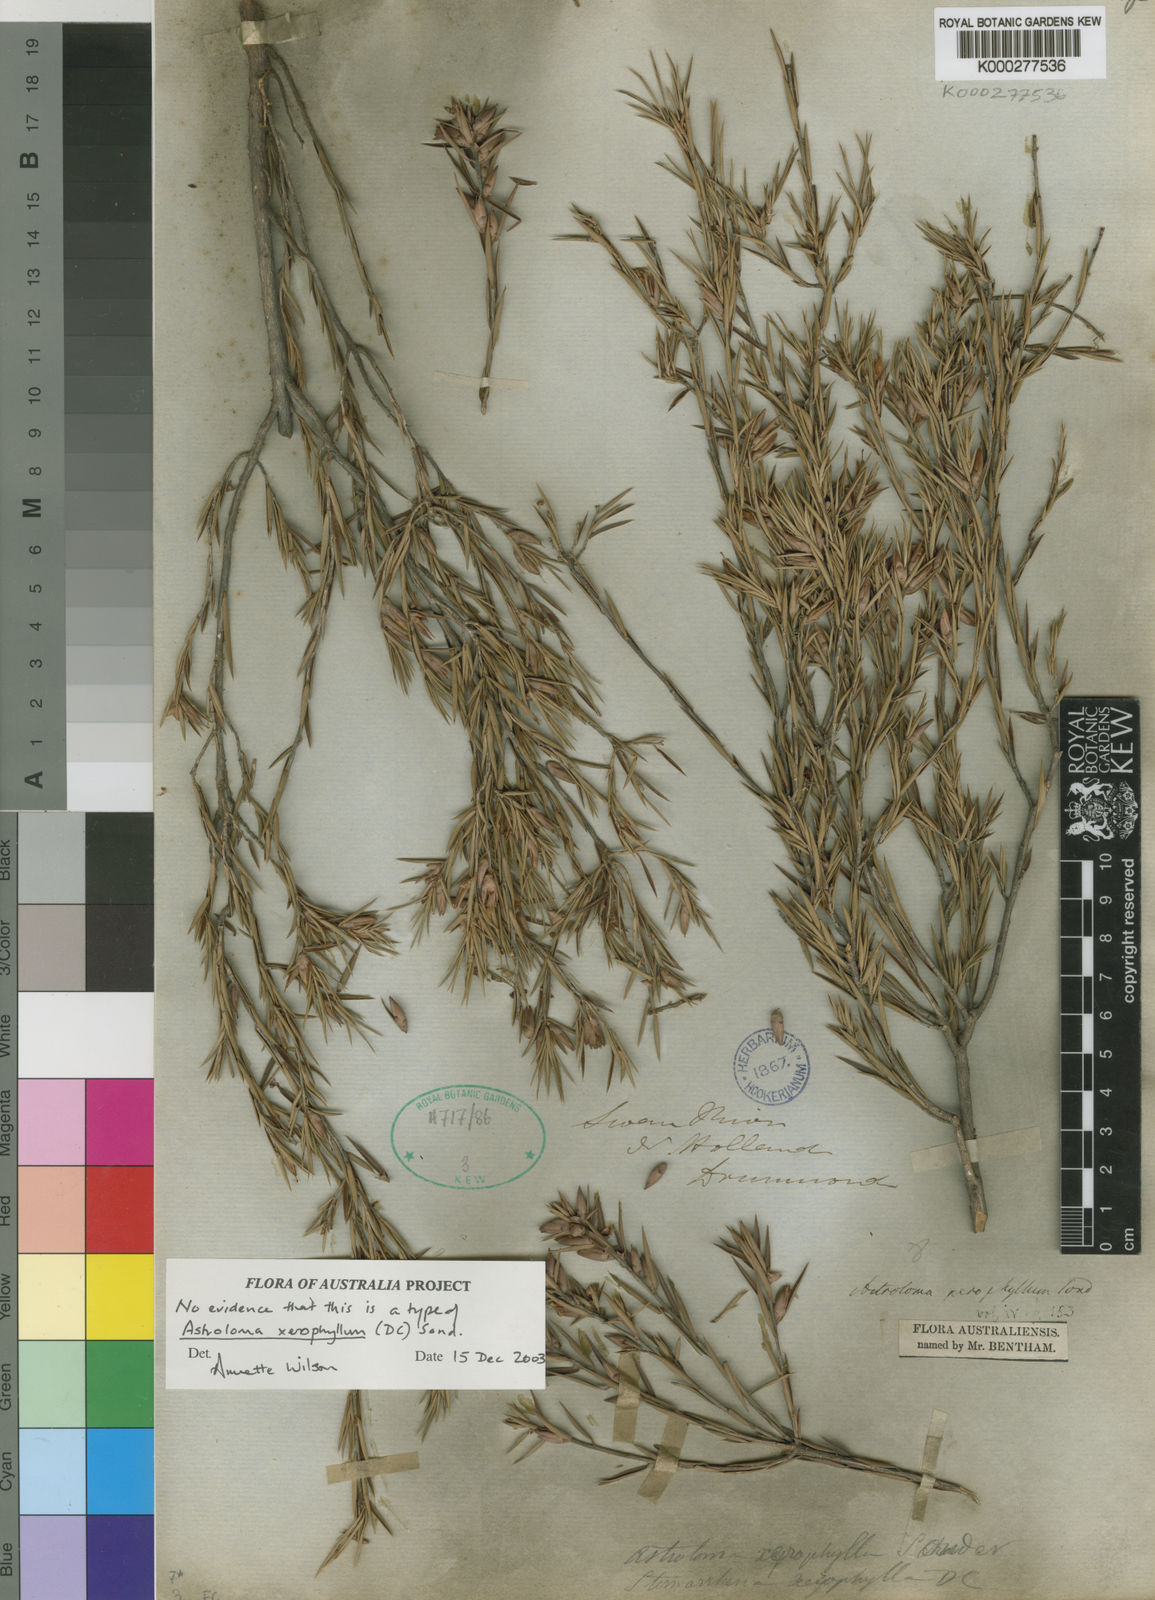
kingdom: Plantae
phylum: Tracheophyta
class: Magnoliopsida
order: Ericales
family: Ericaceae
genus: Styphelia
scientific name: Styphelia xerophylla
